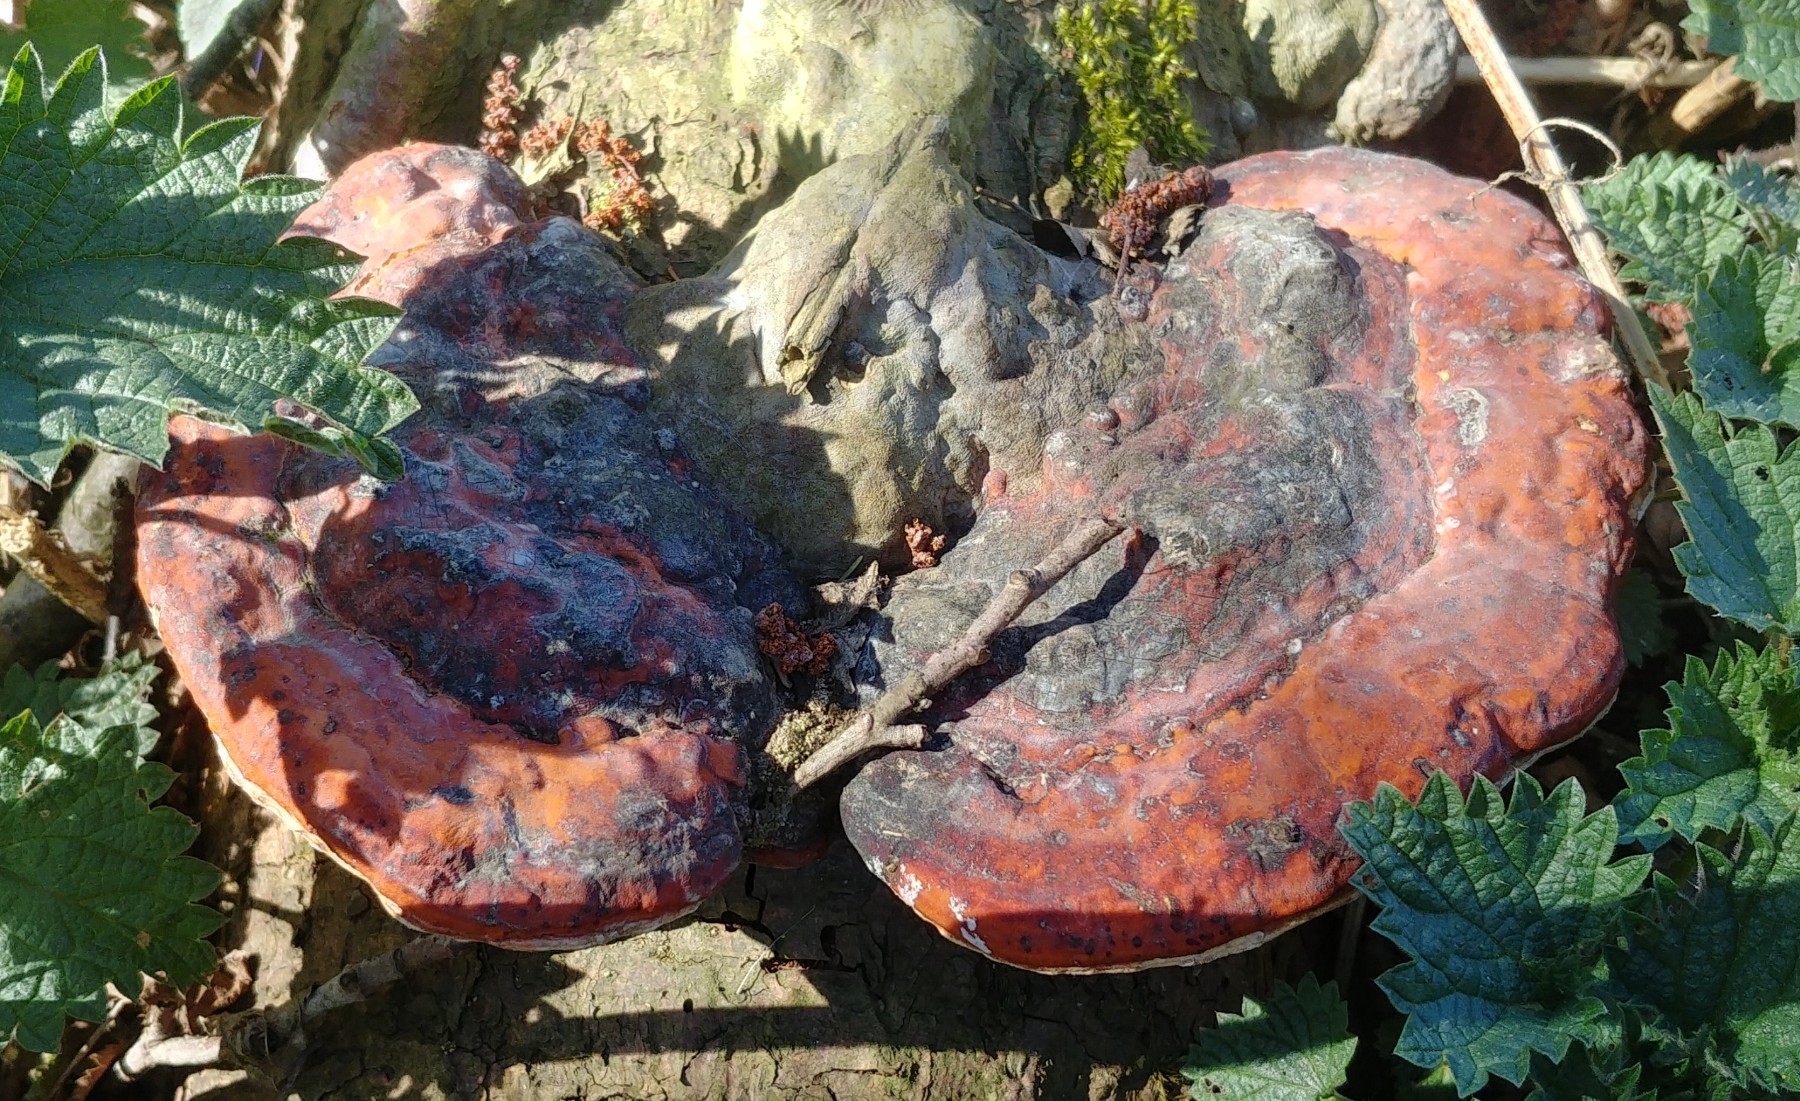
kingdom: Fungi
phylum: Basidiomycota
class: Agaricomycetes
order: Polyporales
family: Fomitopsidaceae
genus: Fomitopsis
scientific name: Fomitopsis pinicola
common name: randbæltet hovporesvamp
